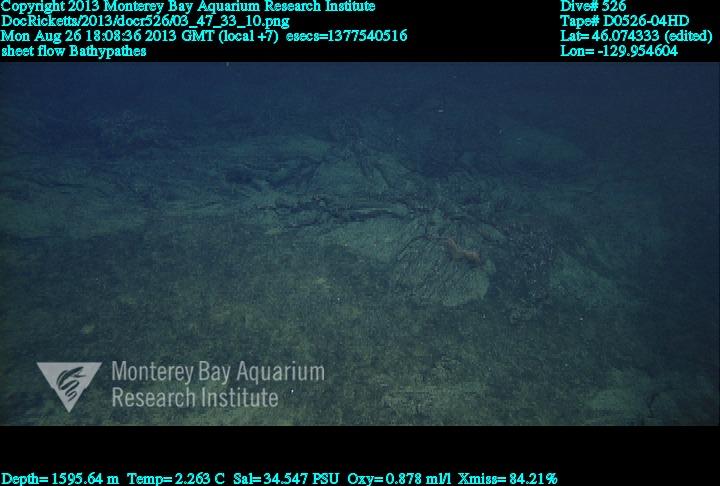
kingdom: Animalia
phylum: Cnidaria
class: Anthozoa
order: Antipatharia
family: Schizopathidae
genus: Bathypathes
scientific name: Bathypathes
